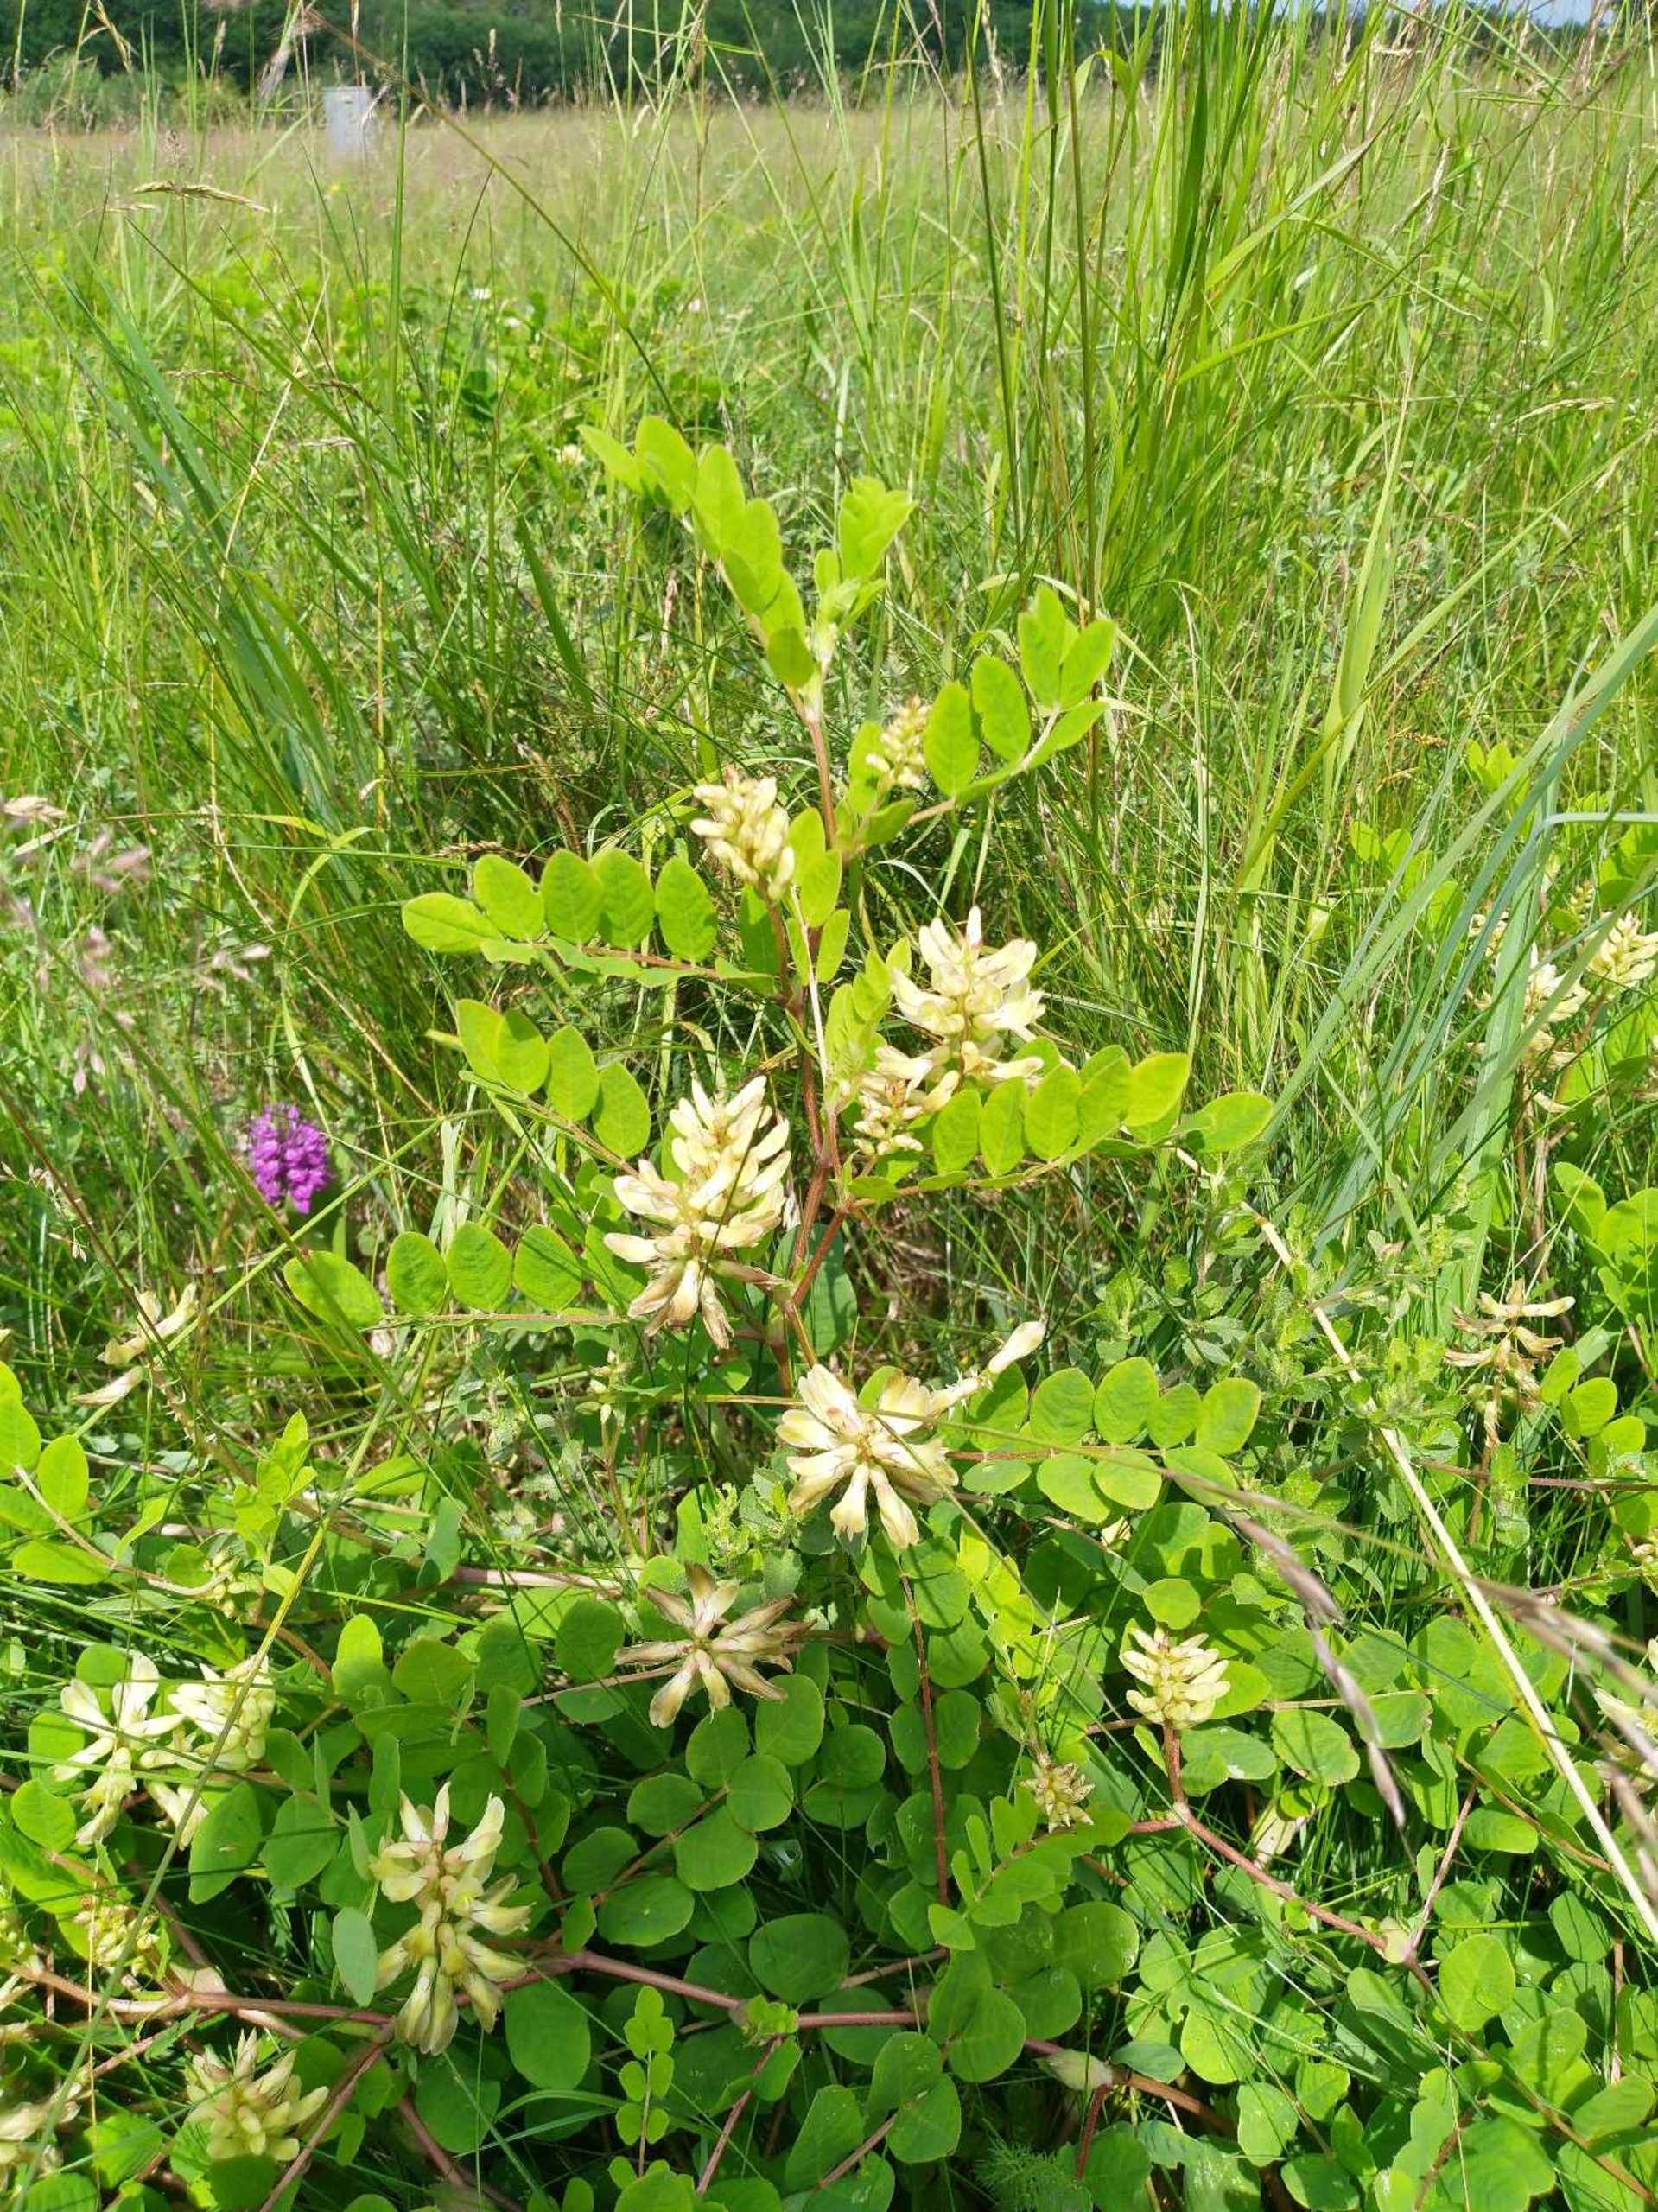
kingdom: Plantae
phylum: Tracheophyta
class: Magnoliopsida
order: Fabales
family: Fabaceae
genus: Astragalus
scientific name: Astragalus glycyphyllos
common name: Sød astragel
